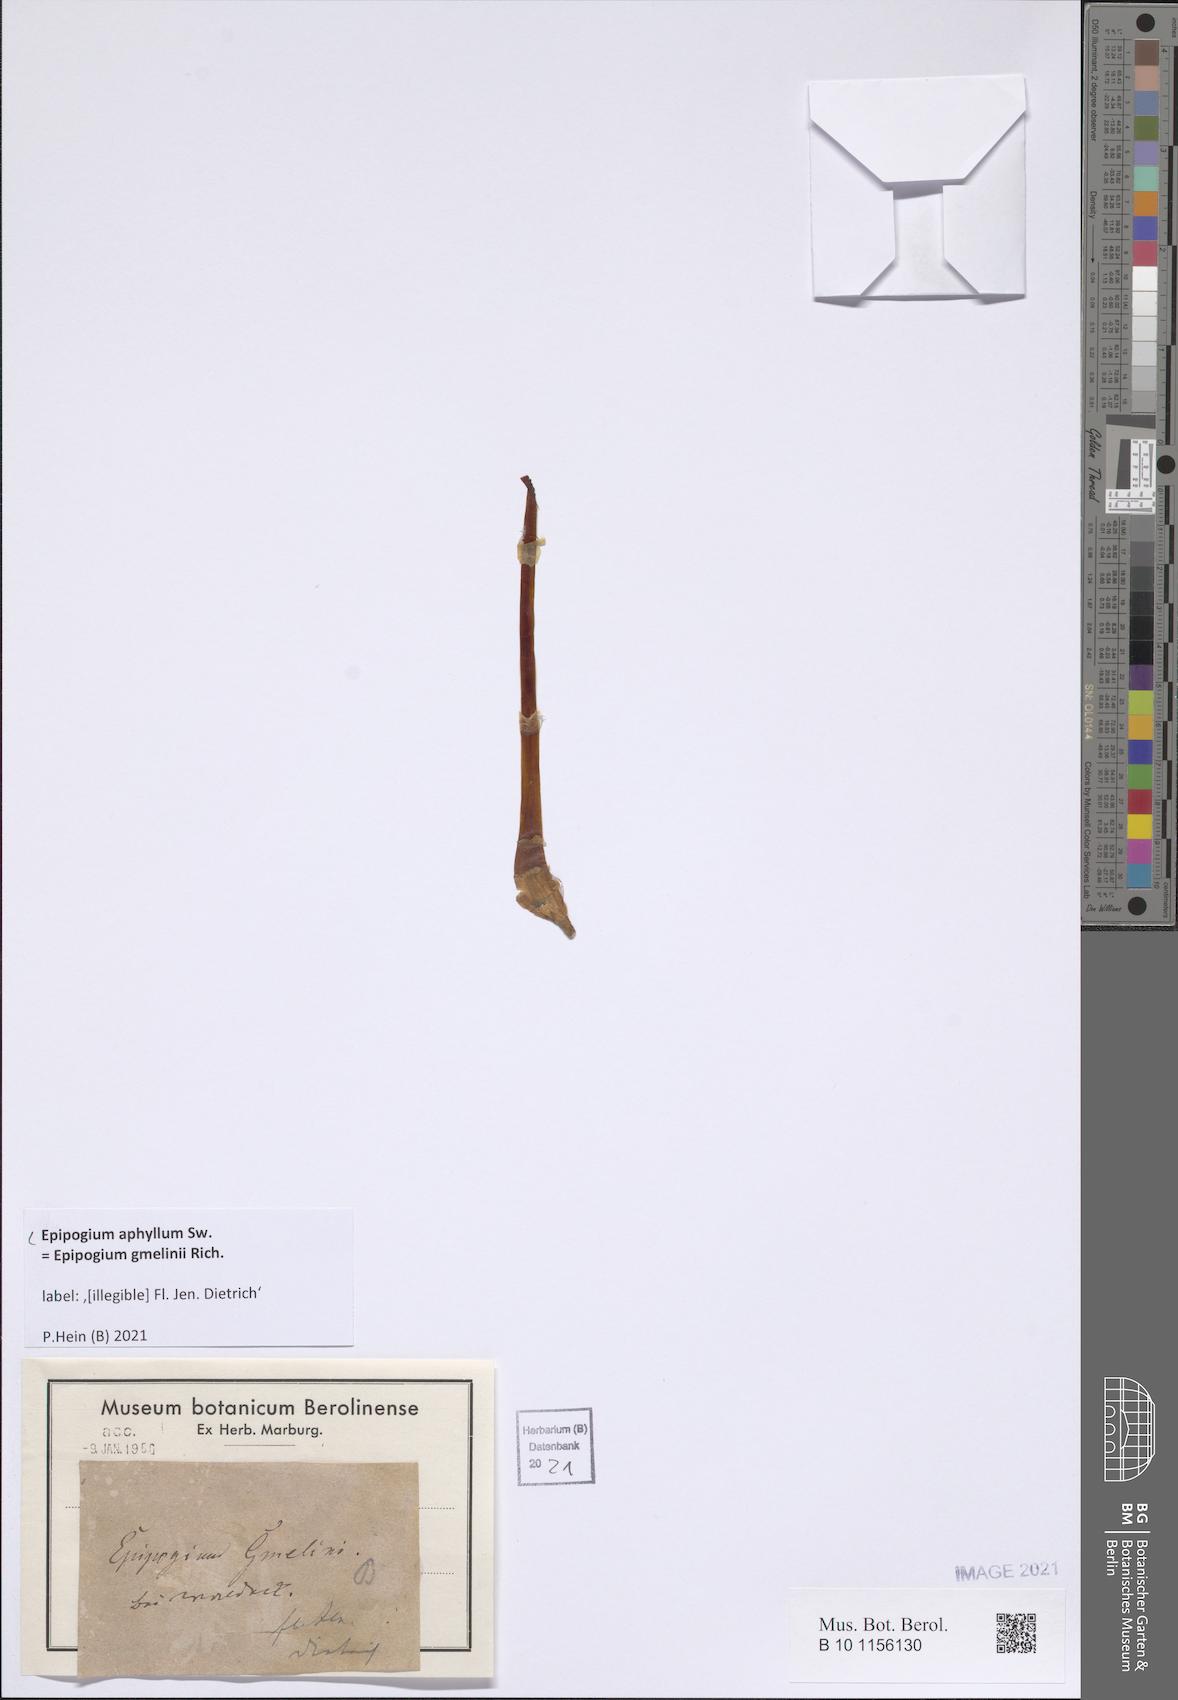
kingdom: Plantae
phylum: Tracheophyta
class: Liliopsida
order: Asparagales
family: Orchidaceae
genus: Epipogium
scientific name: Epipogium aphyllum
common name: Ghost orchid
